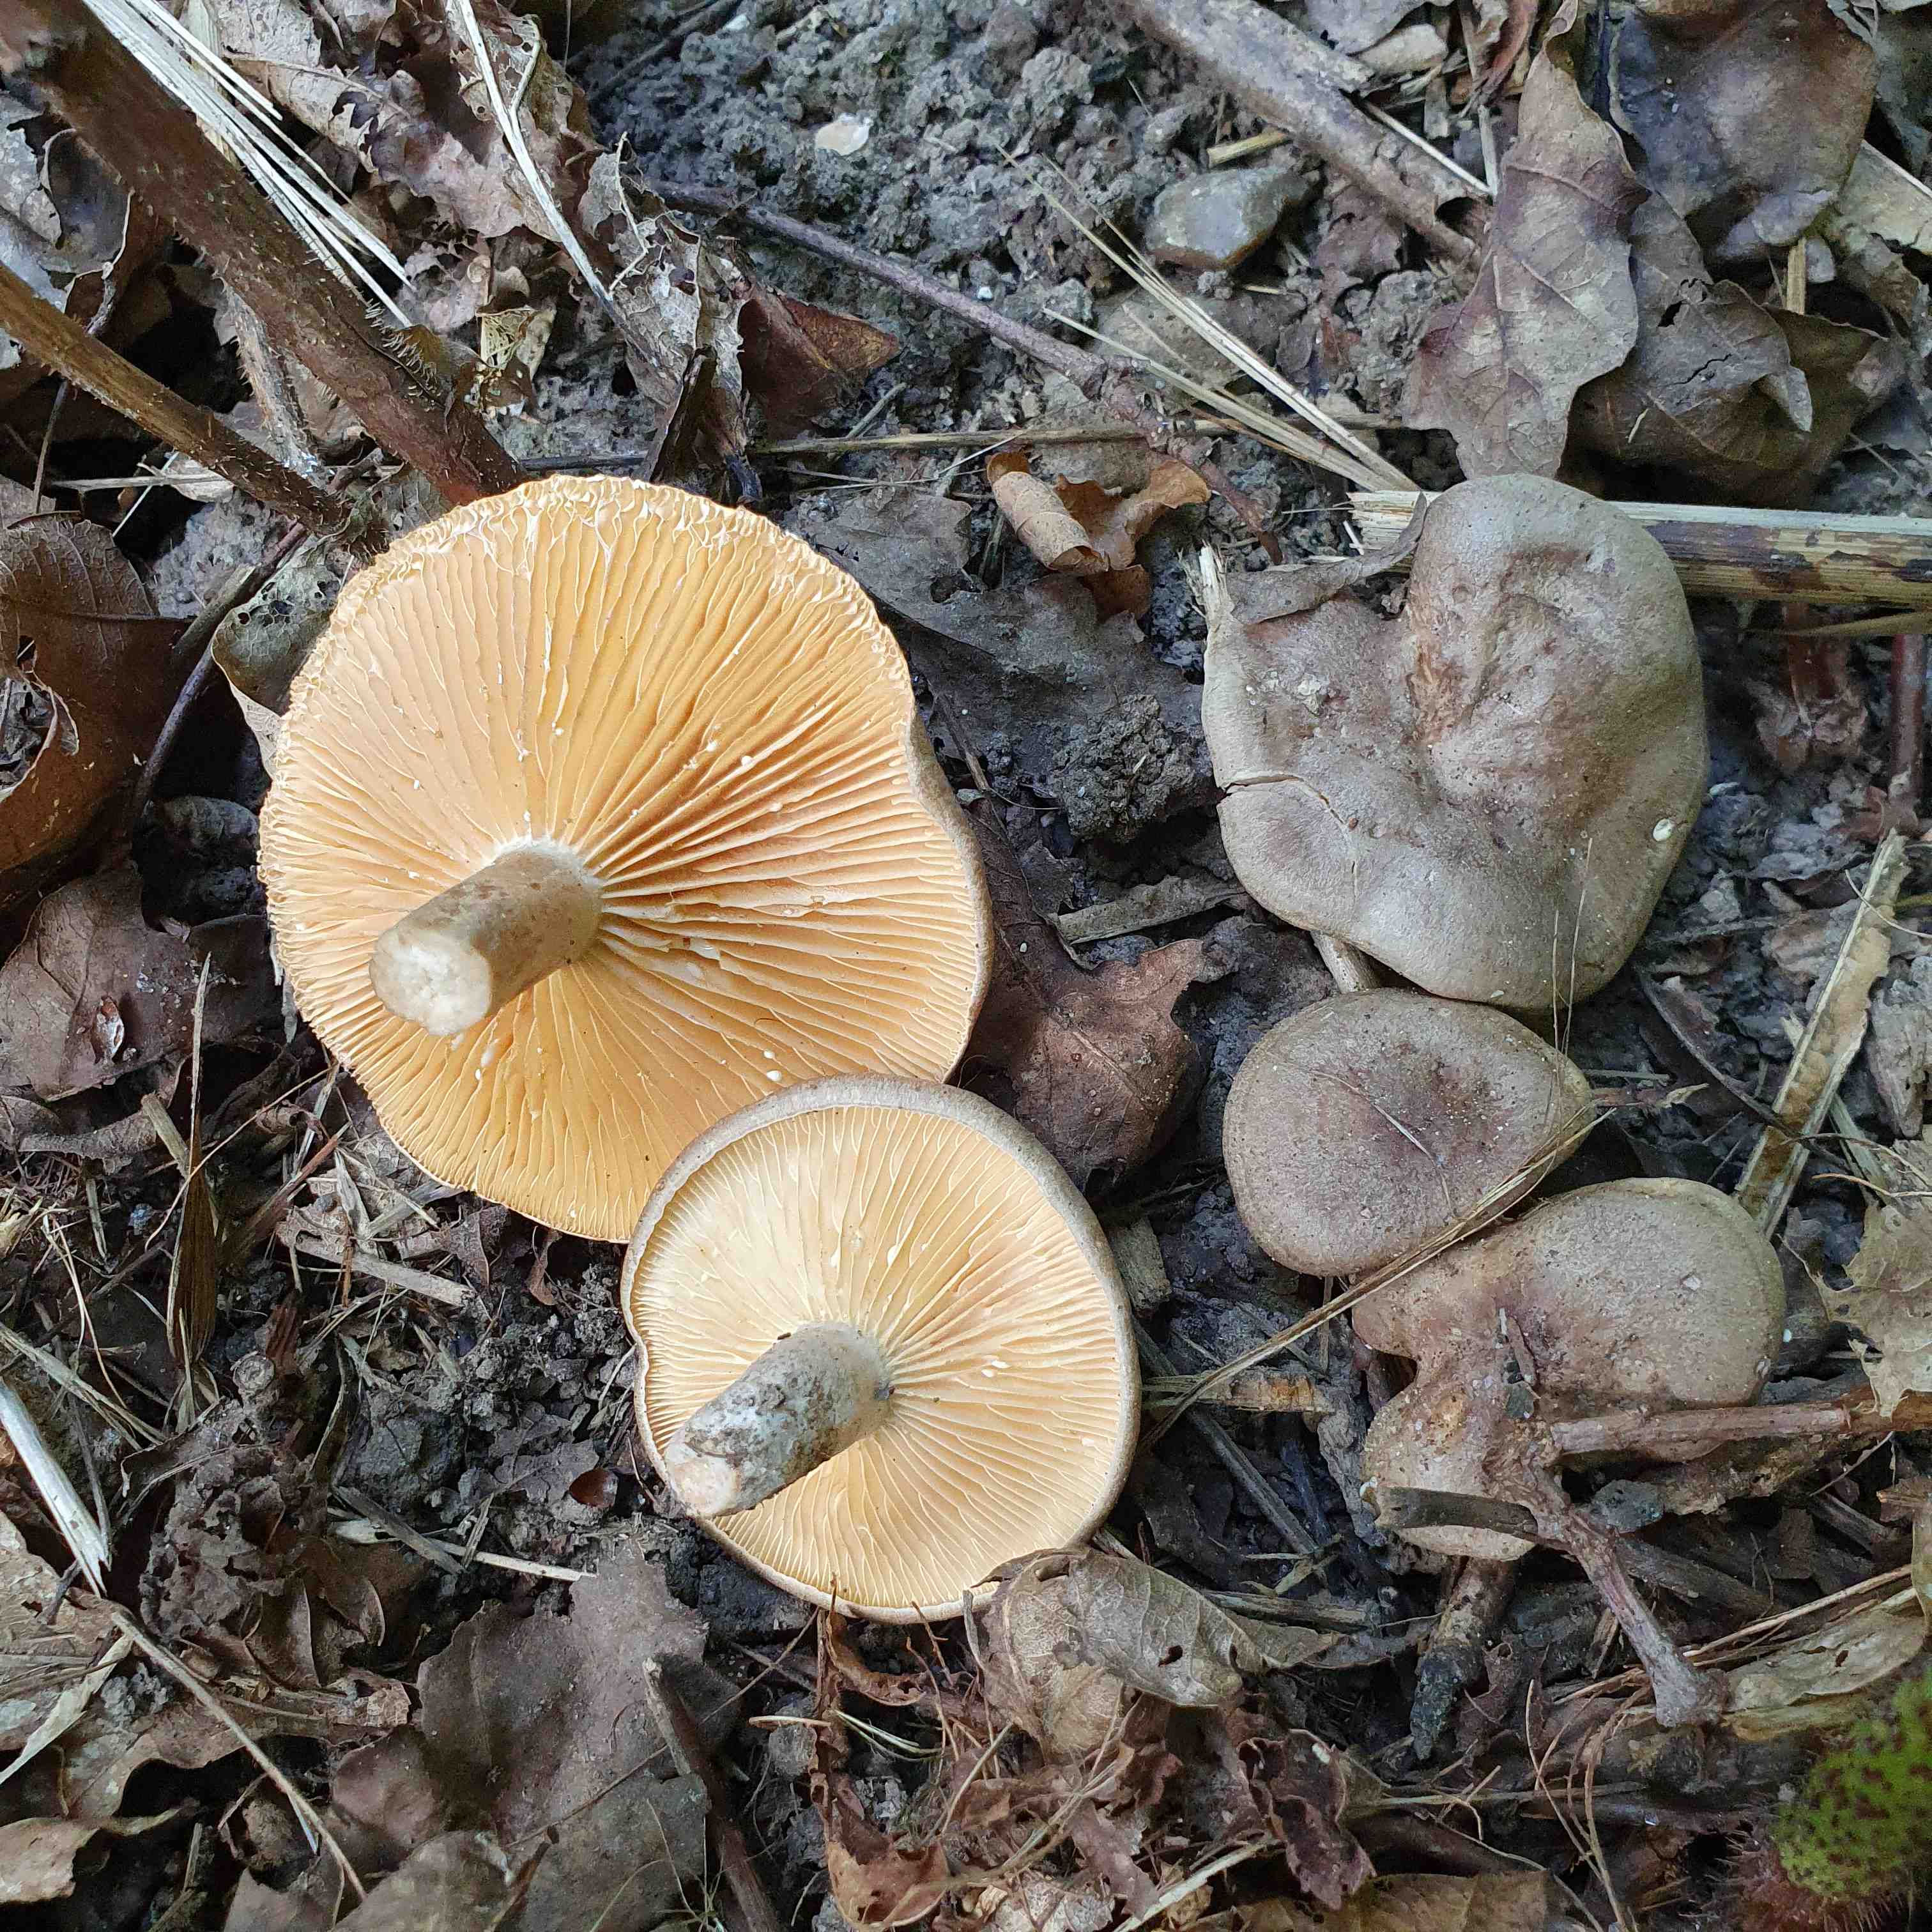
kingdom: Fungi
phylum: Basidiomycota
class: Agaricomycetes
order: Russulales
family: Russulaceae
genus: Lactarius
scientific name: Lactarius pyrogalus
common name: hassel-mælkehat
